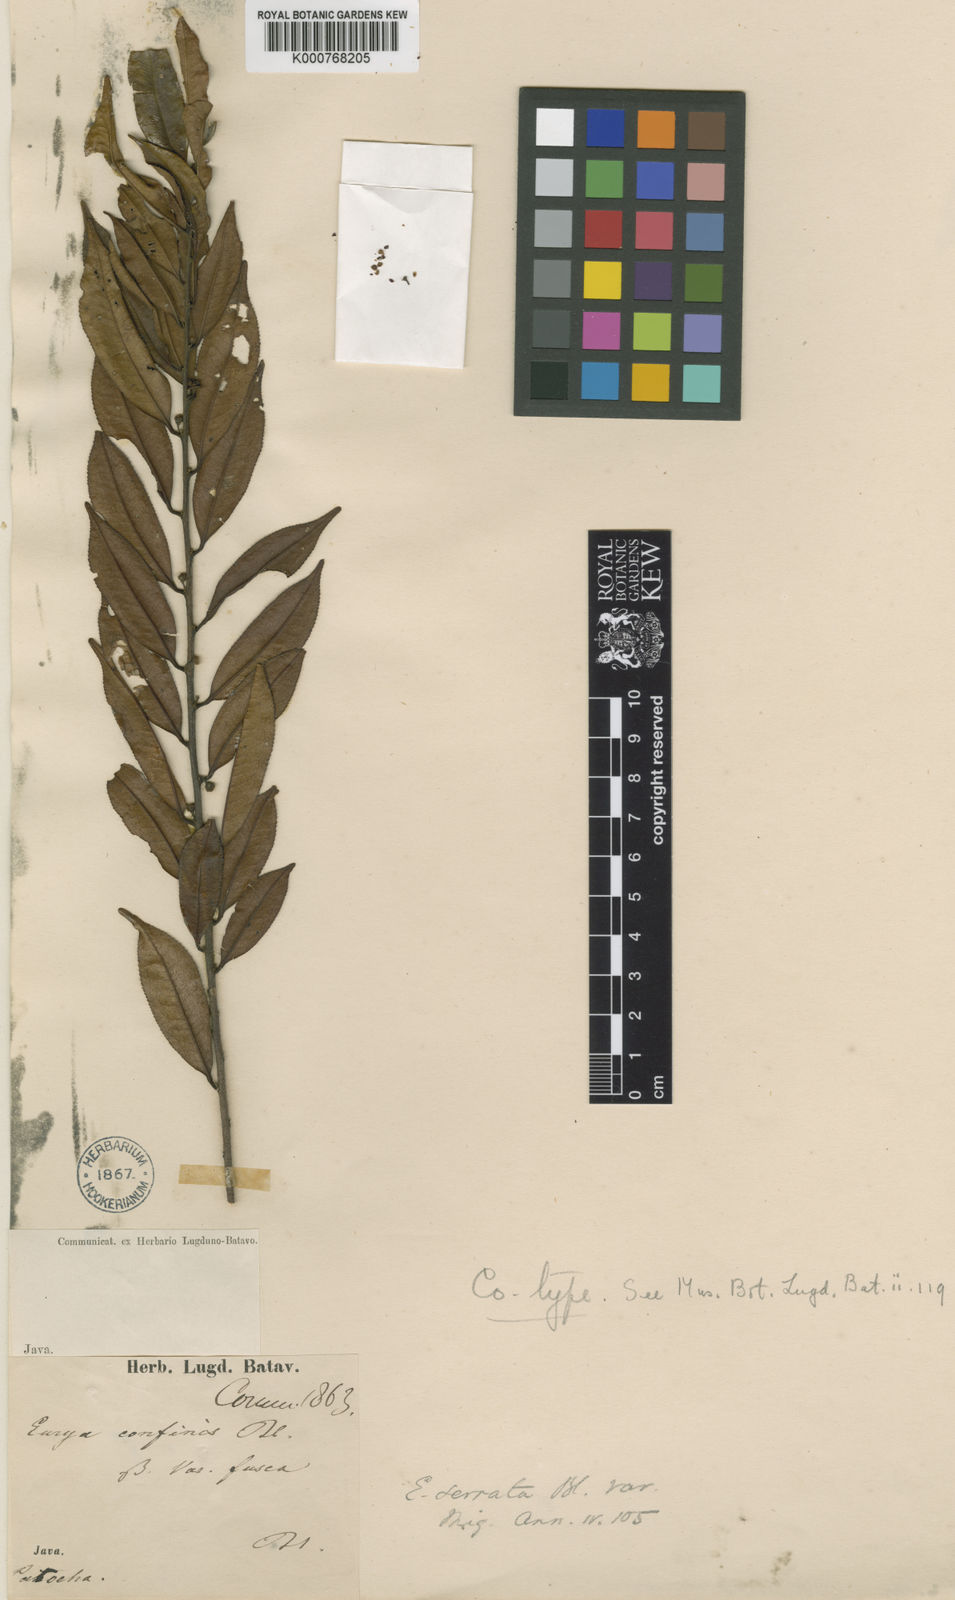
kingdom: Plantae
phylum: Tracheophyta
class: Magnoliopsida
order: Ericales
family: Pentaphylacaceae
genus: Eurya
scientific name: Eurya acuminata
